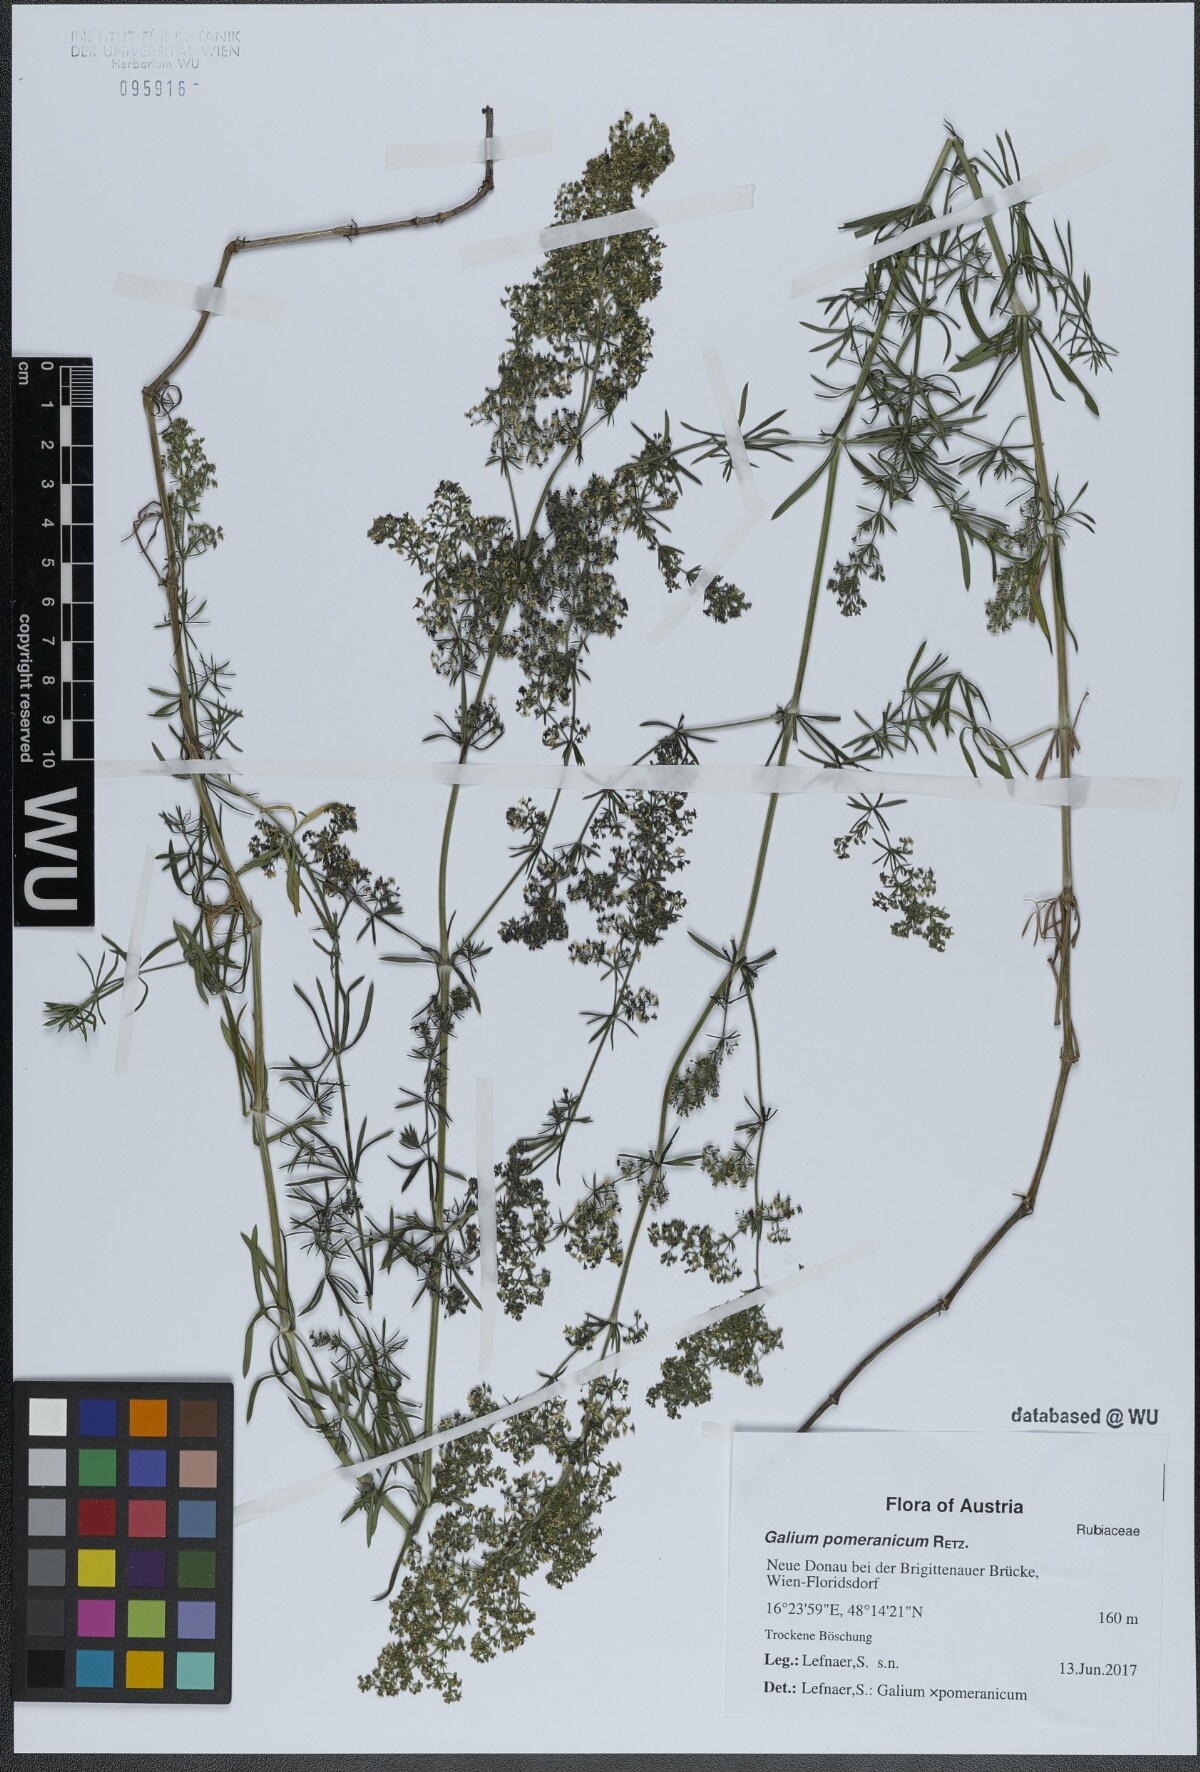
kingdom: Plantae
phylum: Tracheophyta
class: Magnoliopsida
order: Gentianales
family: Rubiaceae
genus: Galium
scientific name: Galium pomeranicum
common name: Bedstraw
